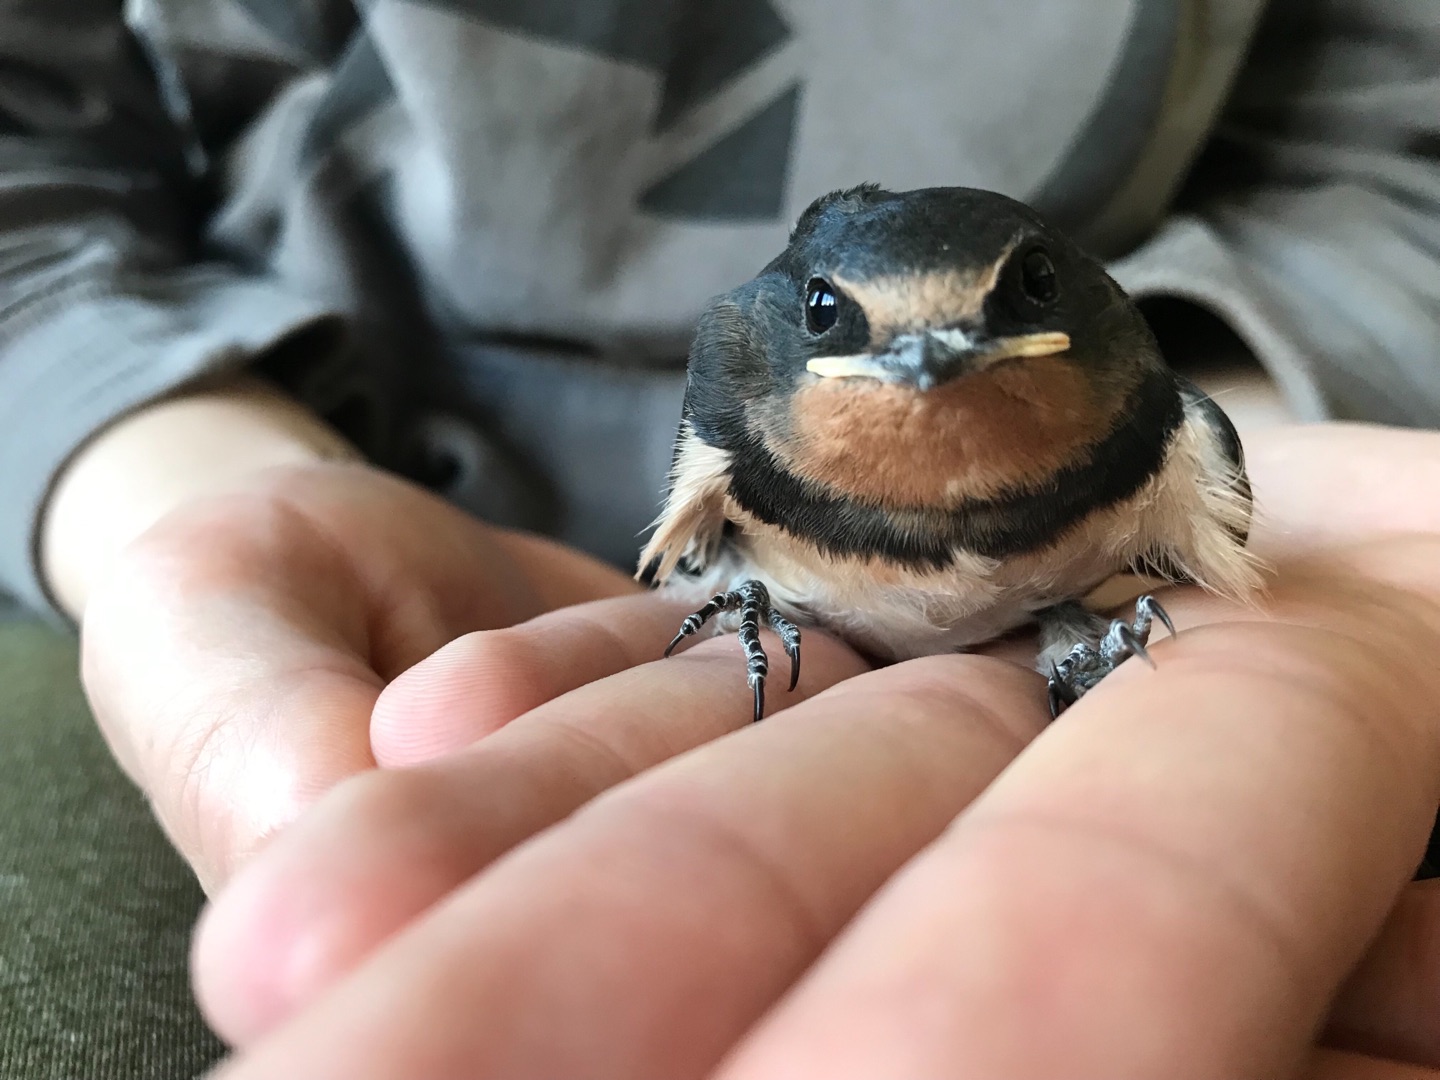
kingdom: Animalia
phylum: Chordata
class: Aves
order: Passeriformes
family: Hirundinidae
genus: Hirundo
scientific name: Hirundo rustica
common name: Landsvale
